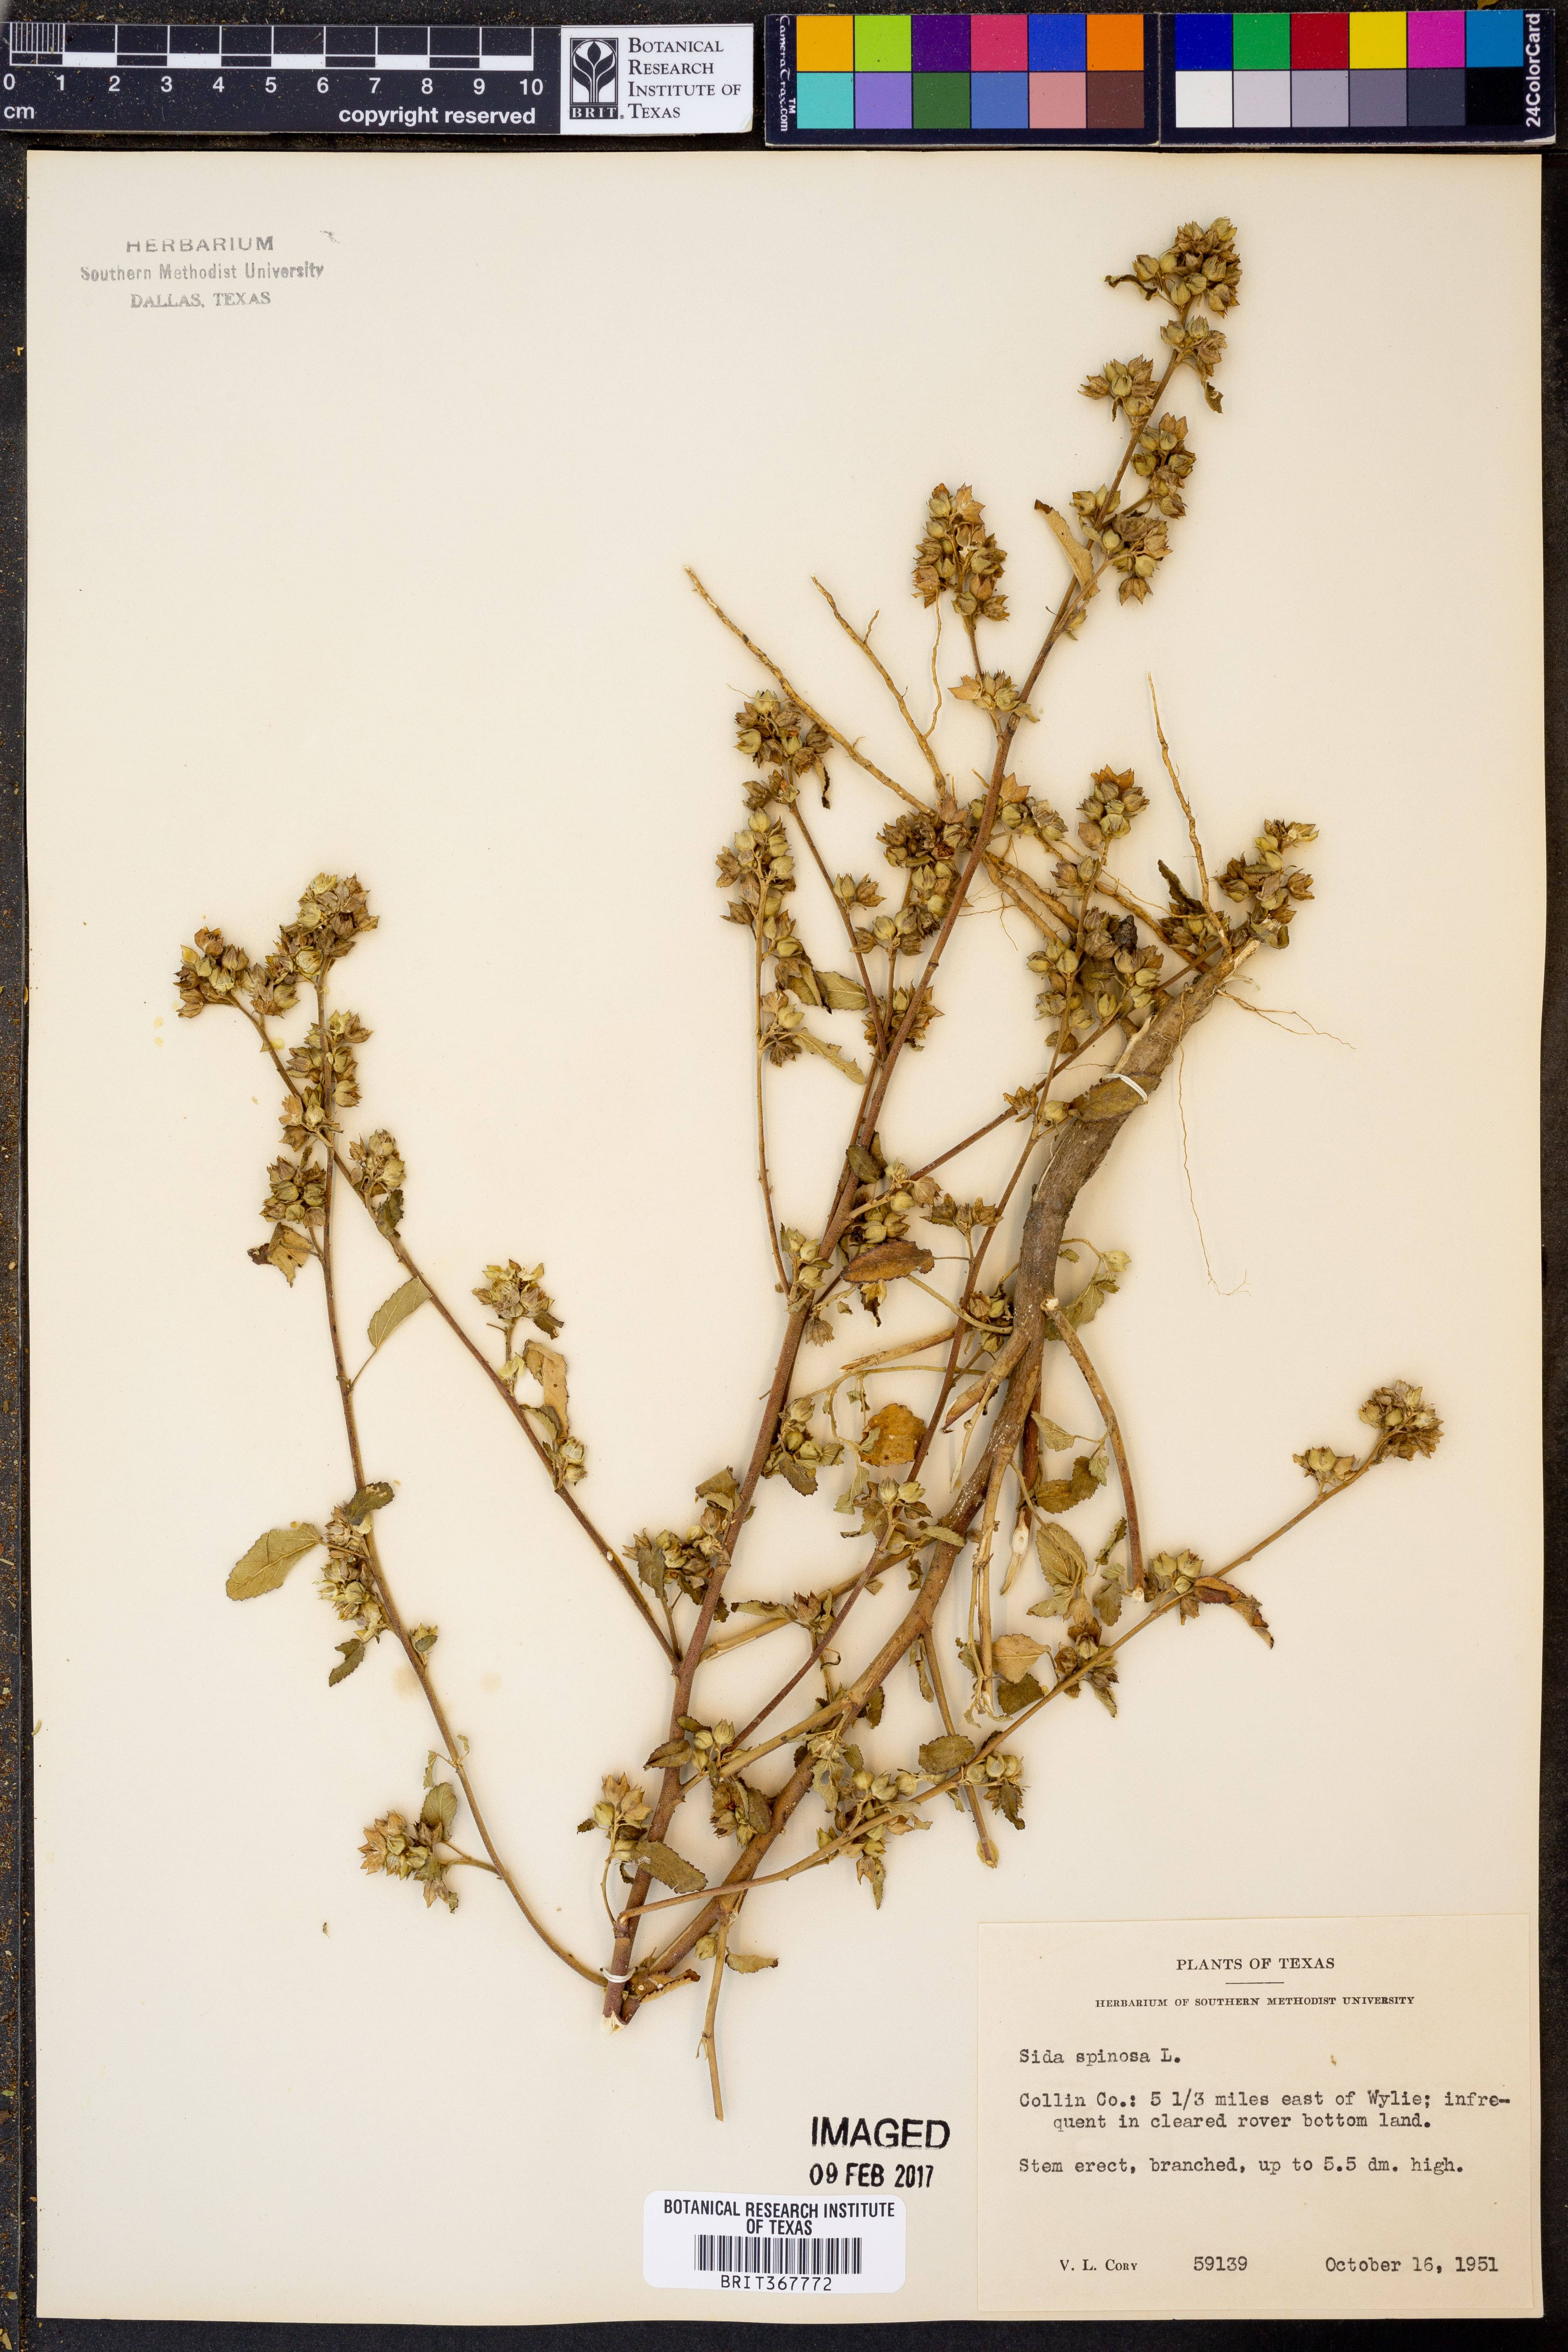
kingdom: Plantae
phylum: Tracheophyta
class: Magnoliopsida
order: Malvales
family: Malvaceae
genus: Sida
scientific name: Sida spinosa
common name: Prickly fanpetals
